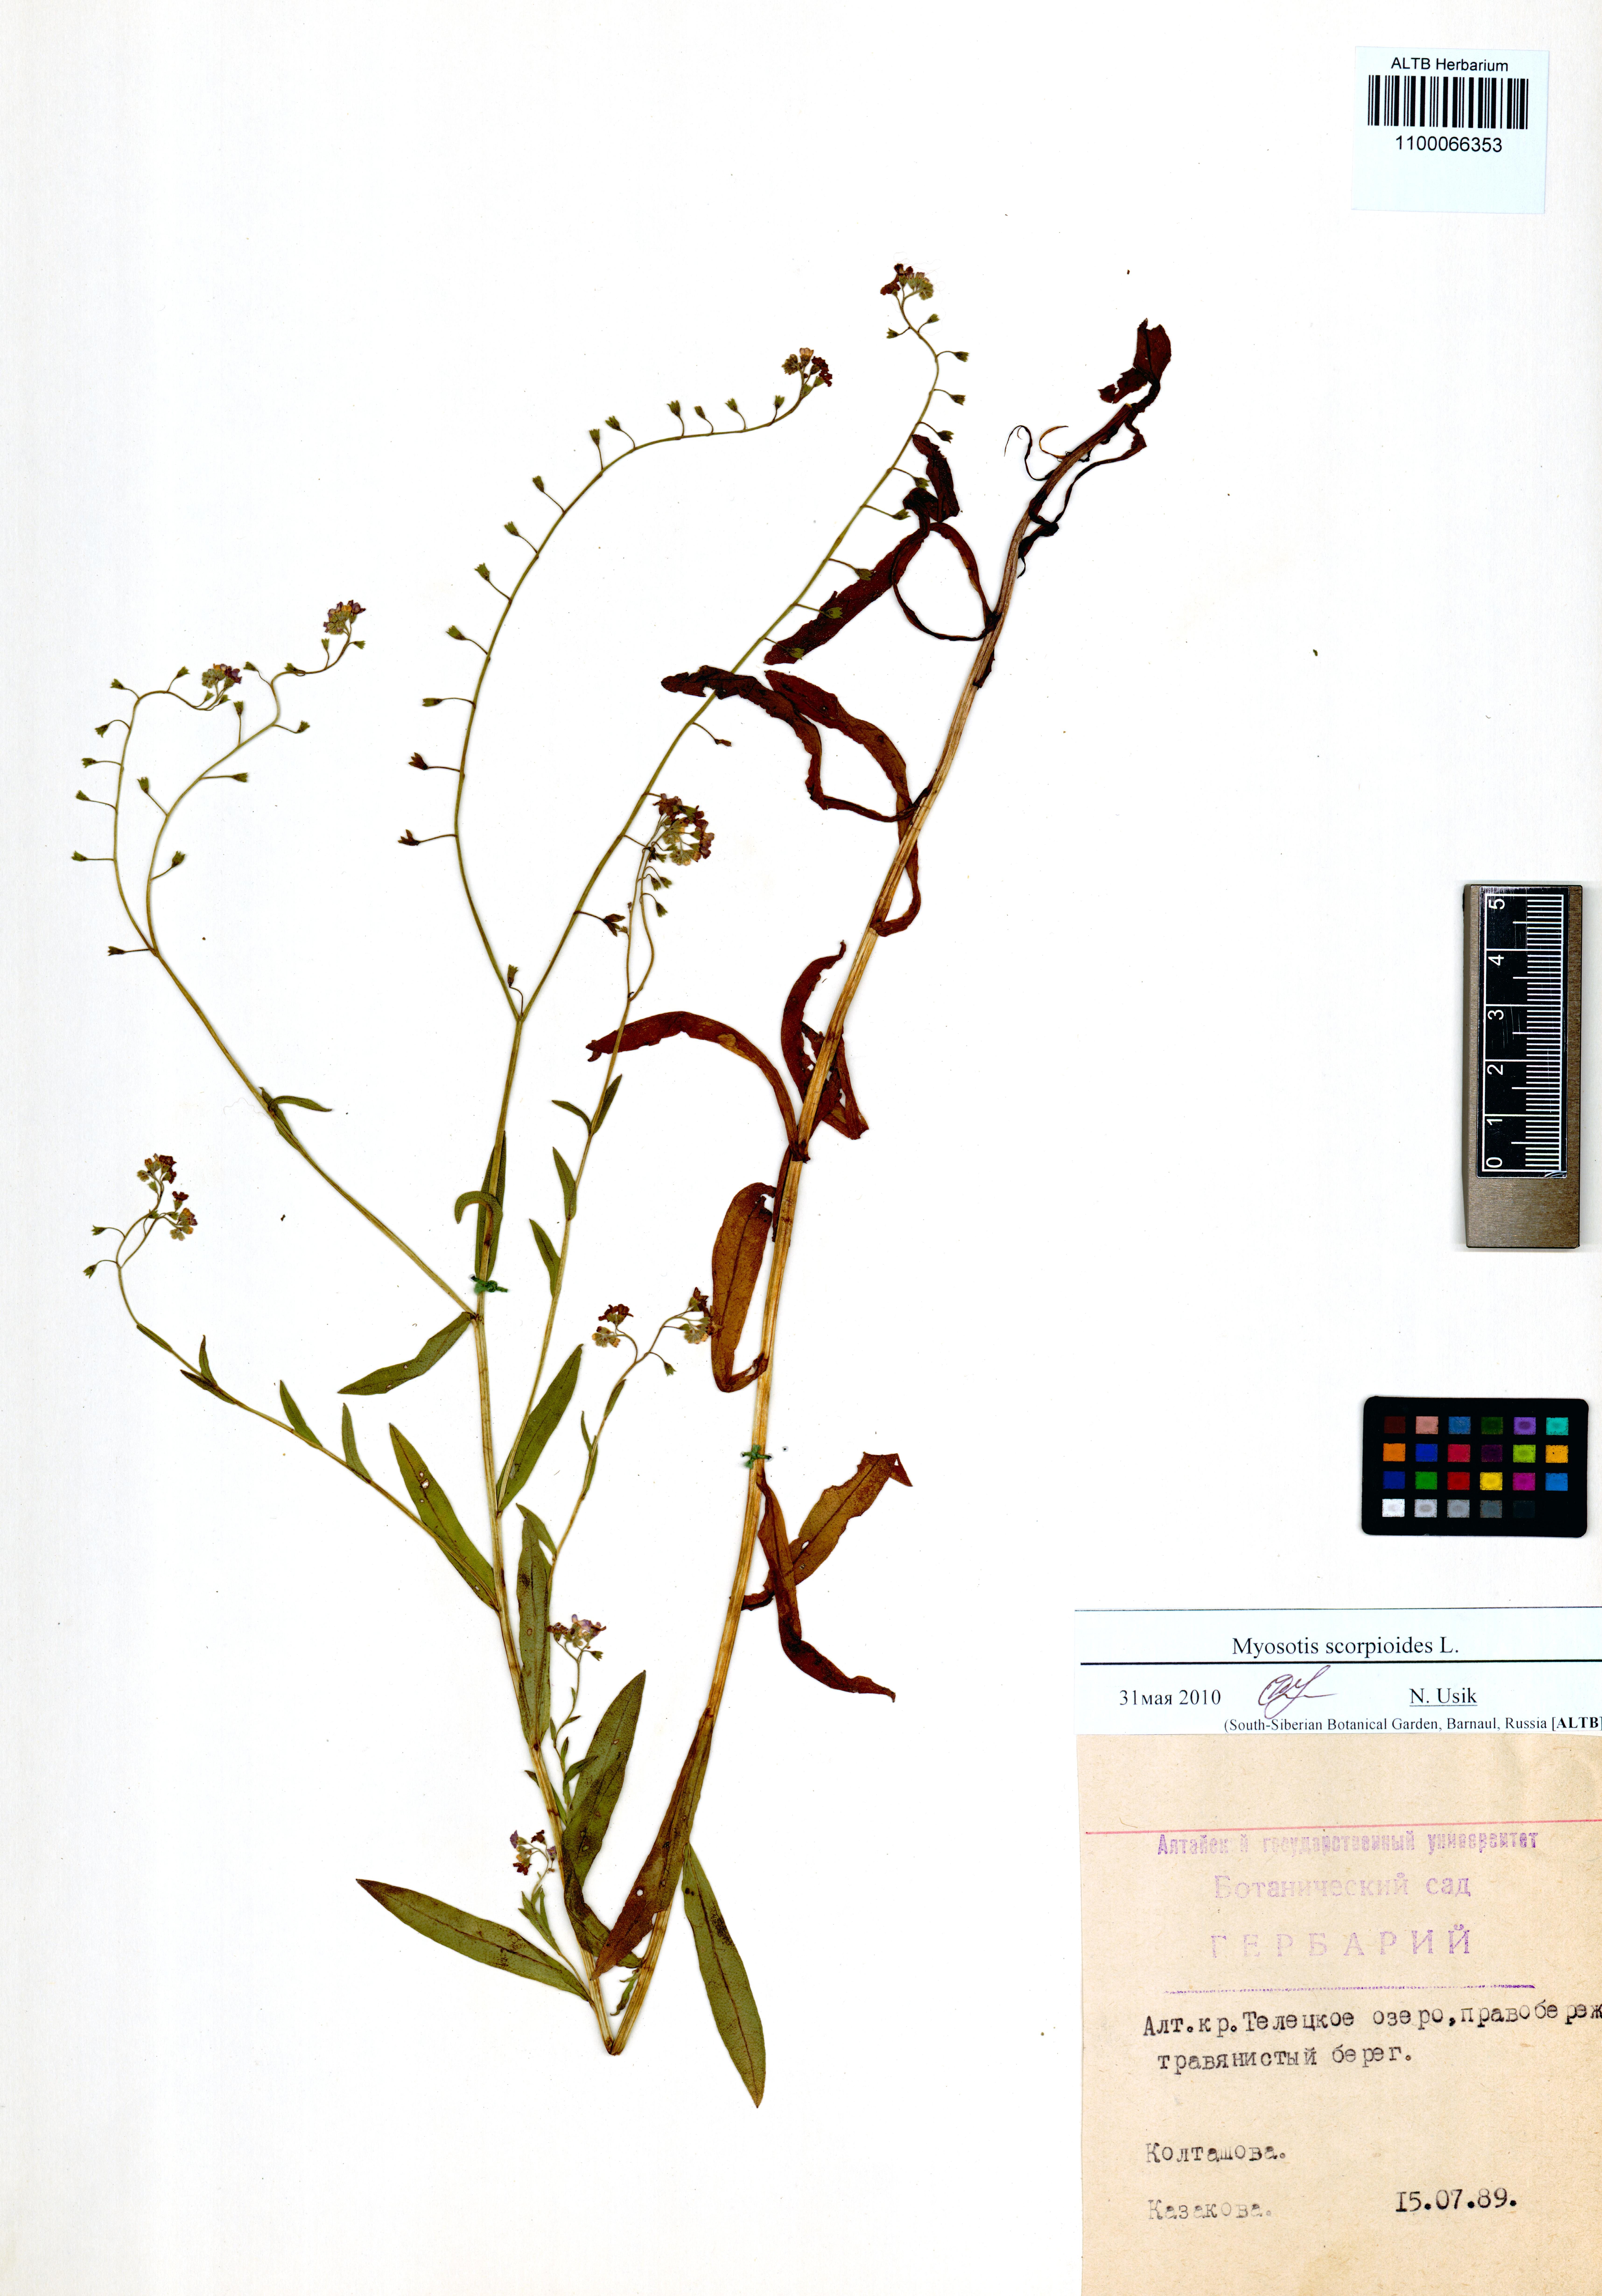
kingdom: Plantae
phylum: Tracheophyta
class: Magnoliopsida
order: Boraginales
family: Boraginaceae
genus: Myosotis
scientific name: Myosotis scorpioides
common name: Water forget-me-not
